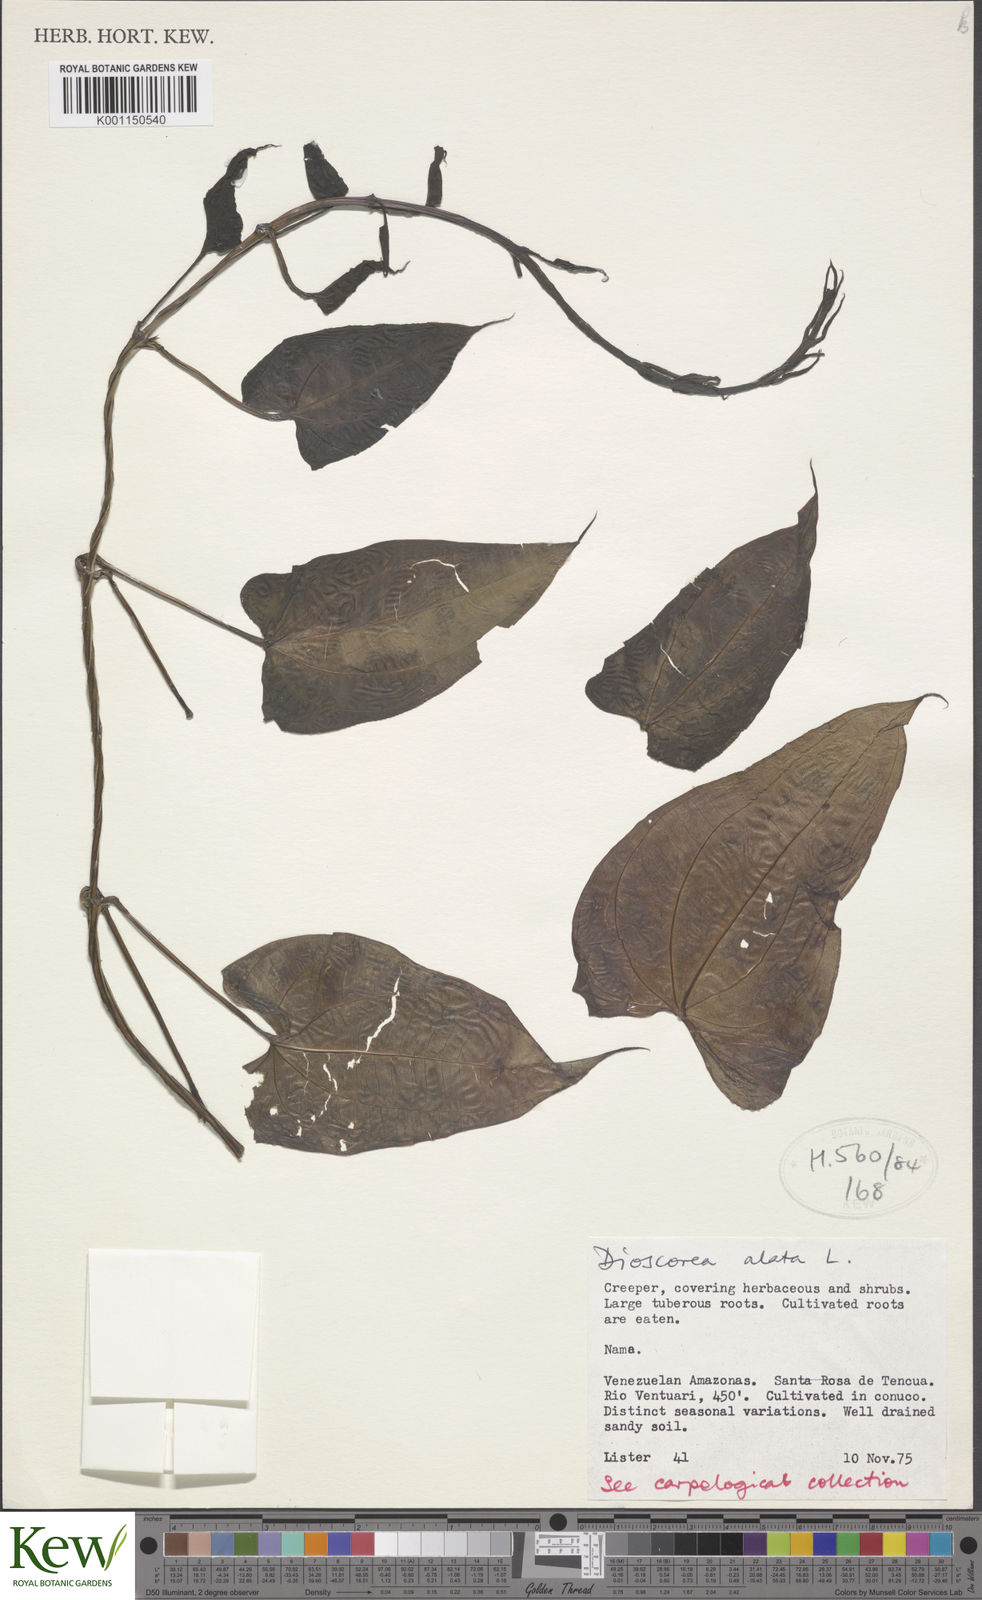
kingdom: Plantae
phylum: Tracheophyta
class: Liliopsida
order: Dioscoreales
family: Dioscoreaceae
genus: Dioscorea
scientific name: Dioscorea alata
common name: Water yam
